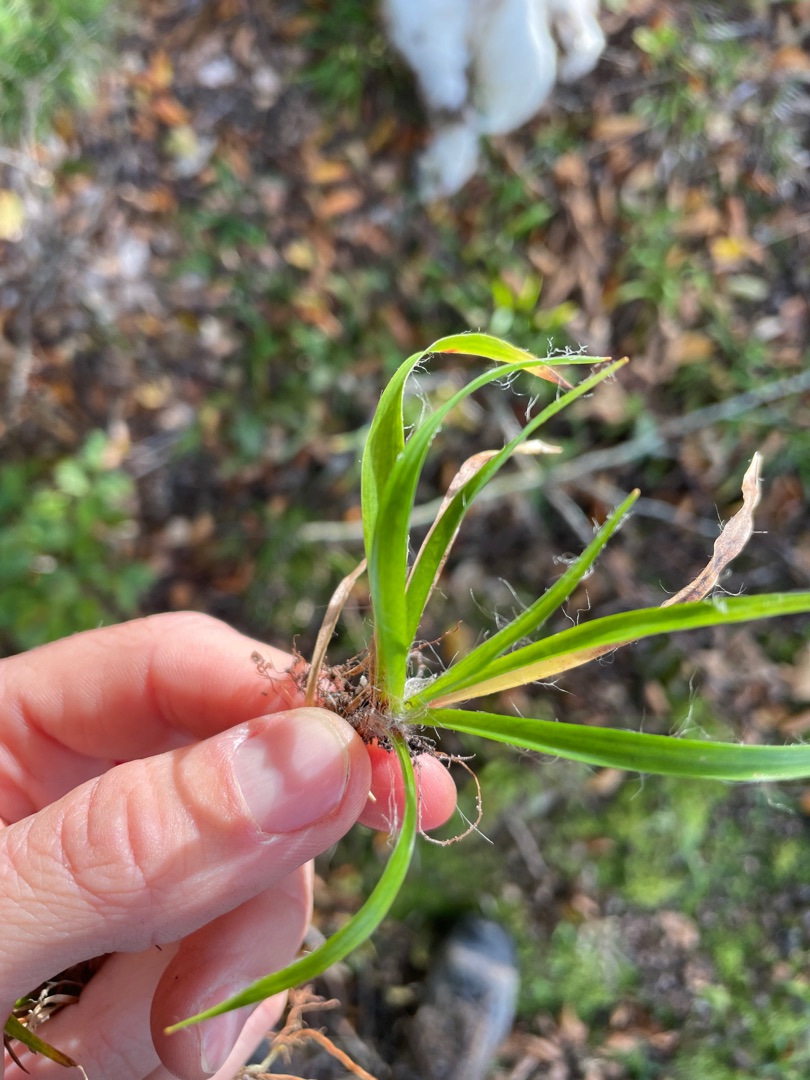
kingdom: Plantae
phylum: Tracheophyta
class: Liliopsida
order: Poales
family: Juncaceae
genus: Luzula
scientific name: Luzula campestris
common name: Mark-frytle
